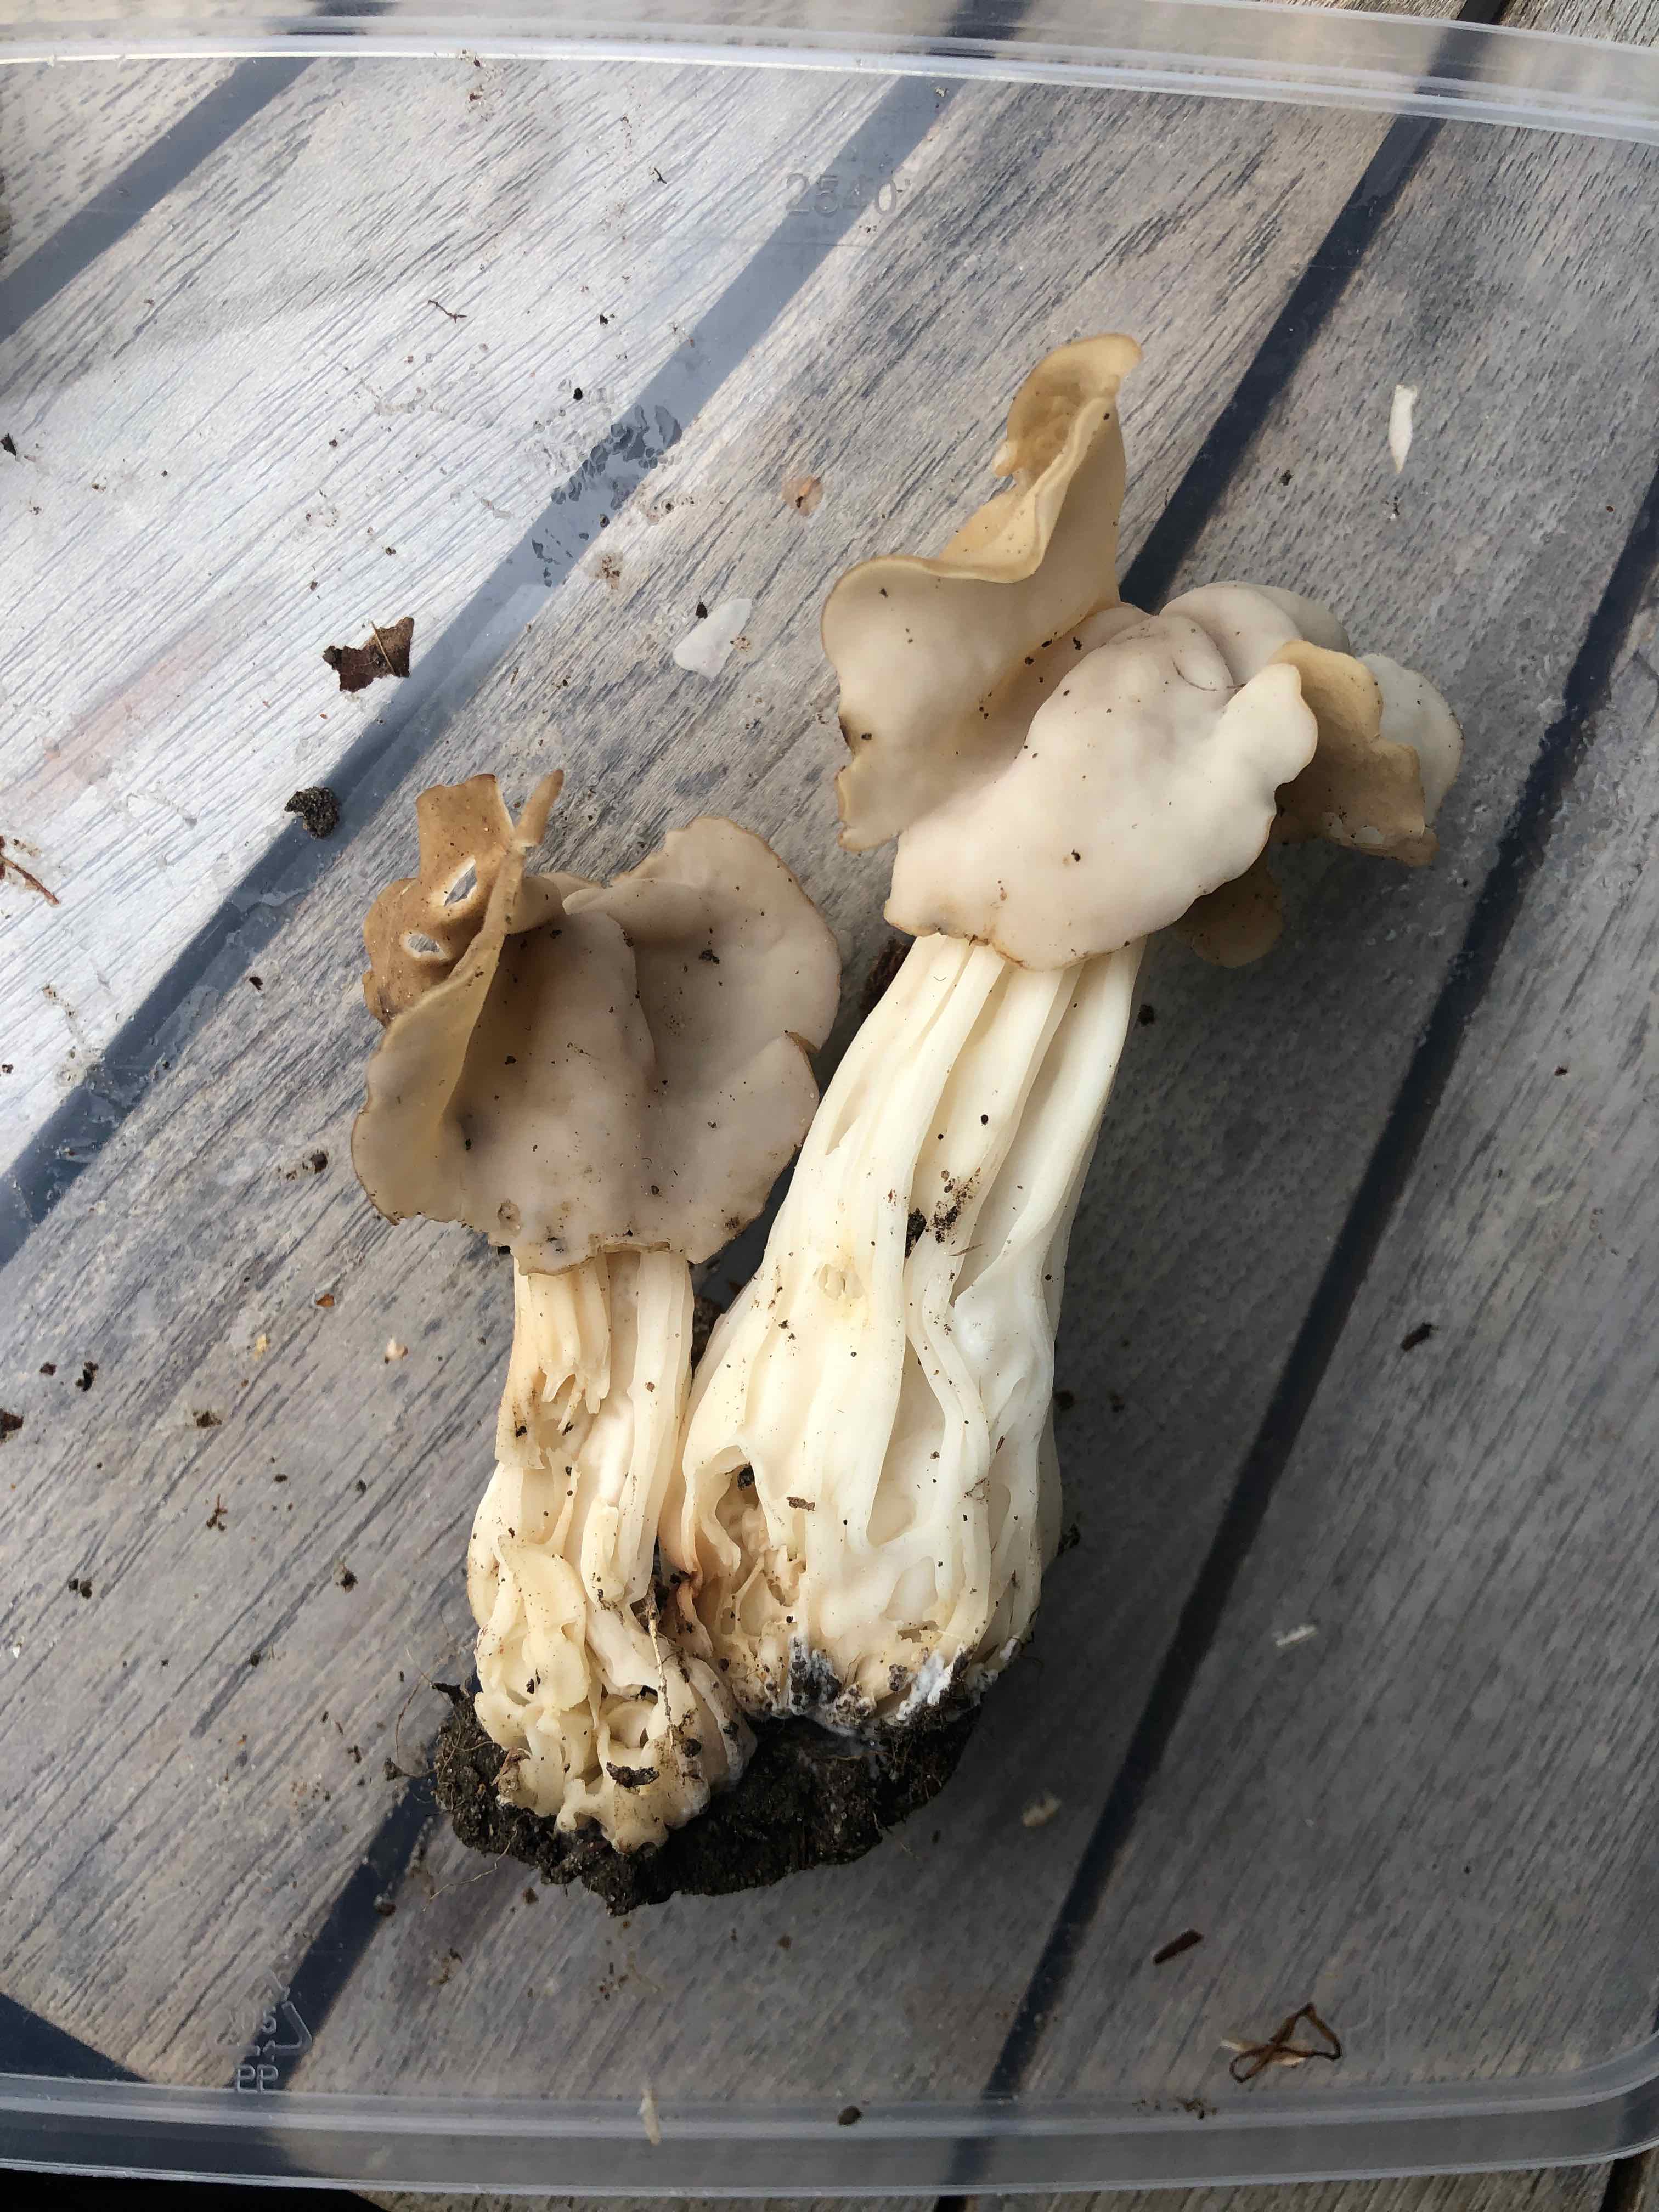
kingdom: Fungi
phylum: Ascomycota
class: Pezizomycetes
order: Pezizales
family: Helvellaceae
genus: Helvella
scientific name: Helvella crispa
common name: kruset foldhat
